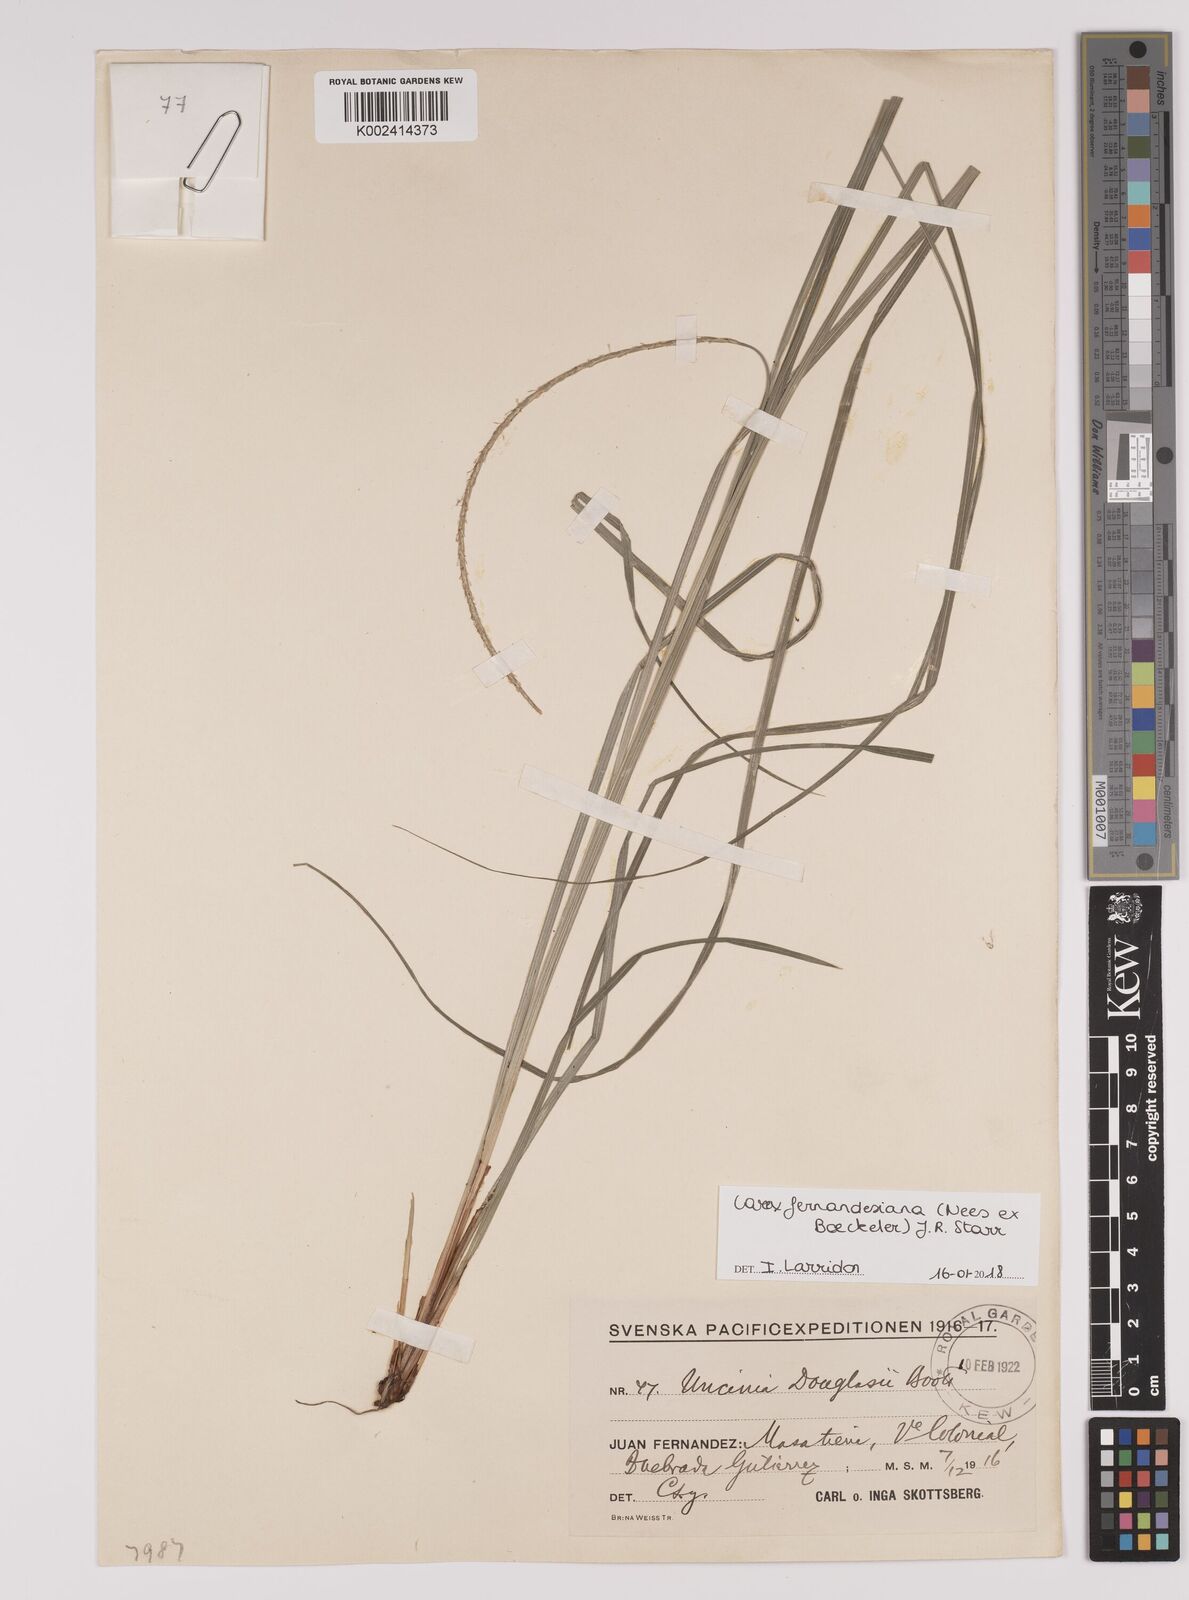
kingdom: Plantae
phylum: Tracheophyta
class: Liliopsida
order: Poales
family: Cyperaceae
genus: Carex
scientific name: Carex fernandesiana
